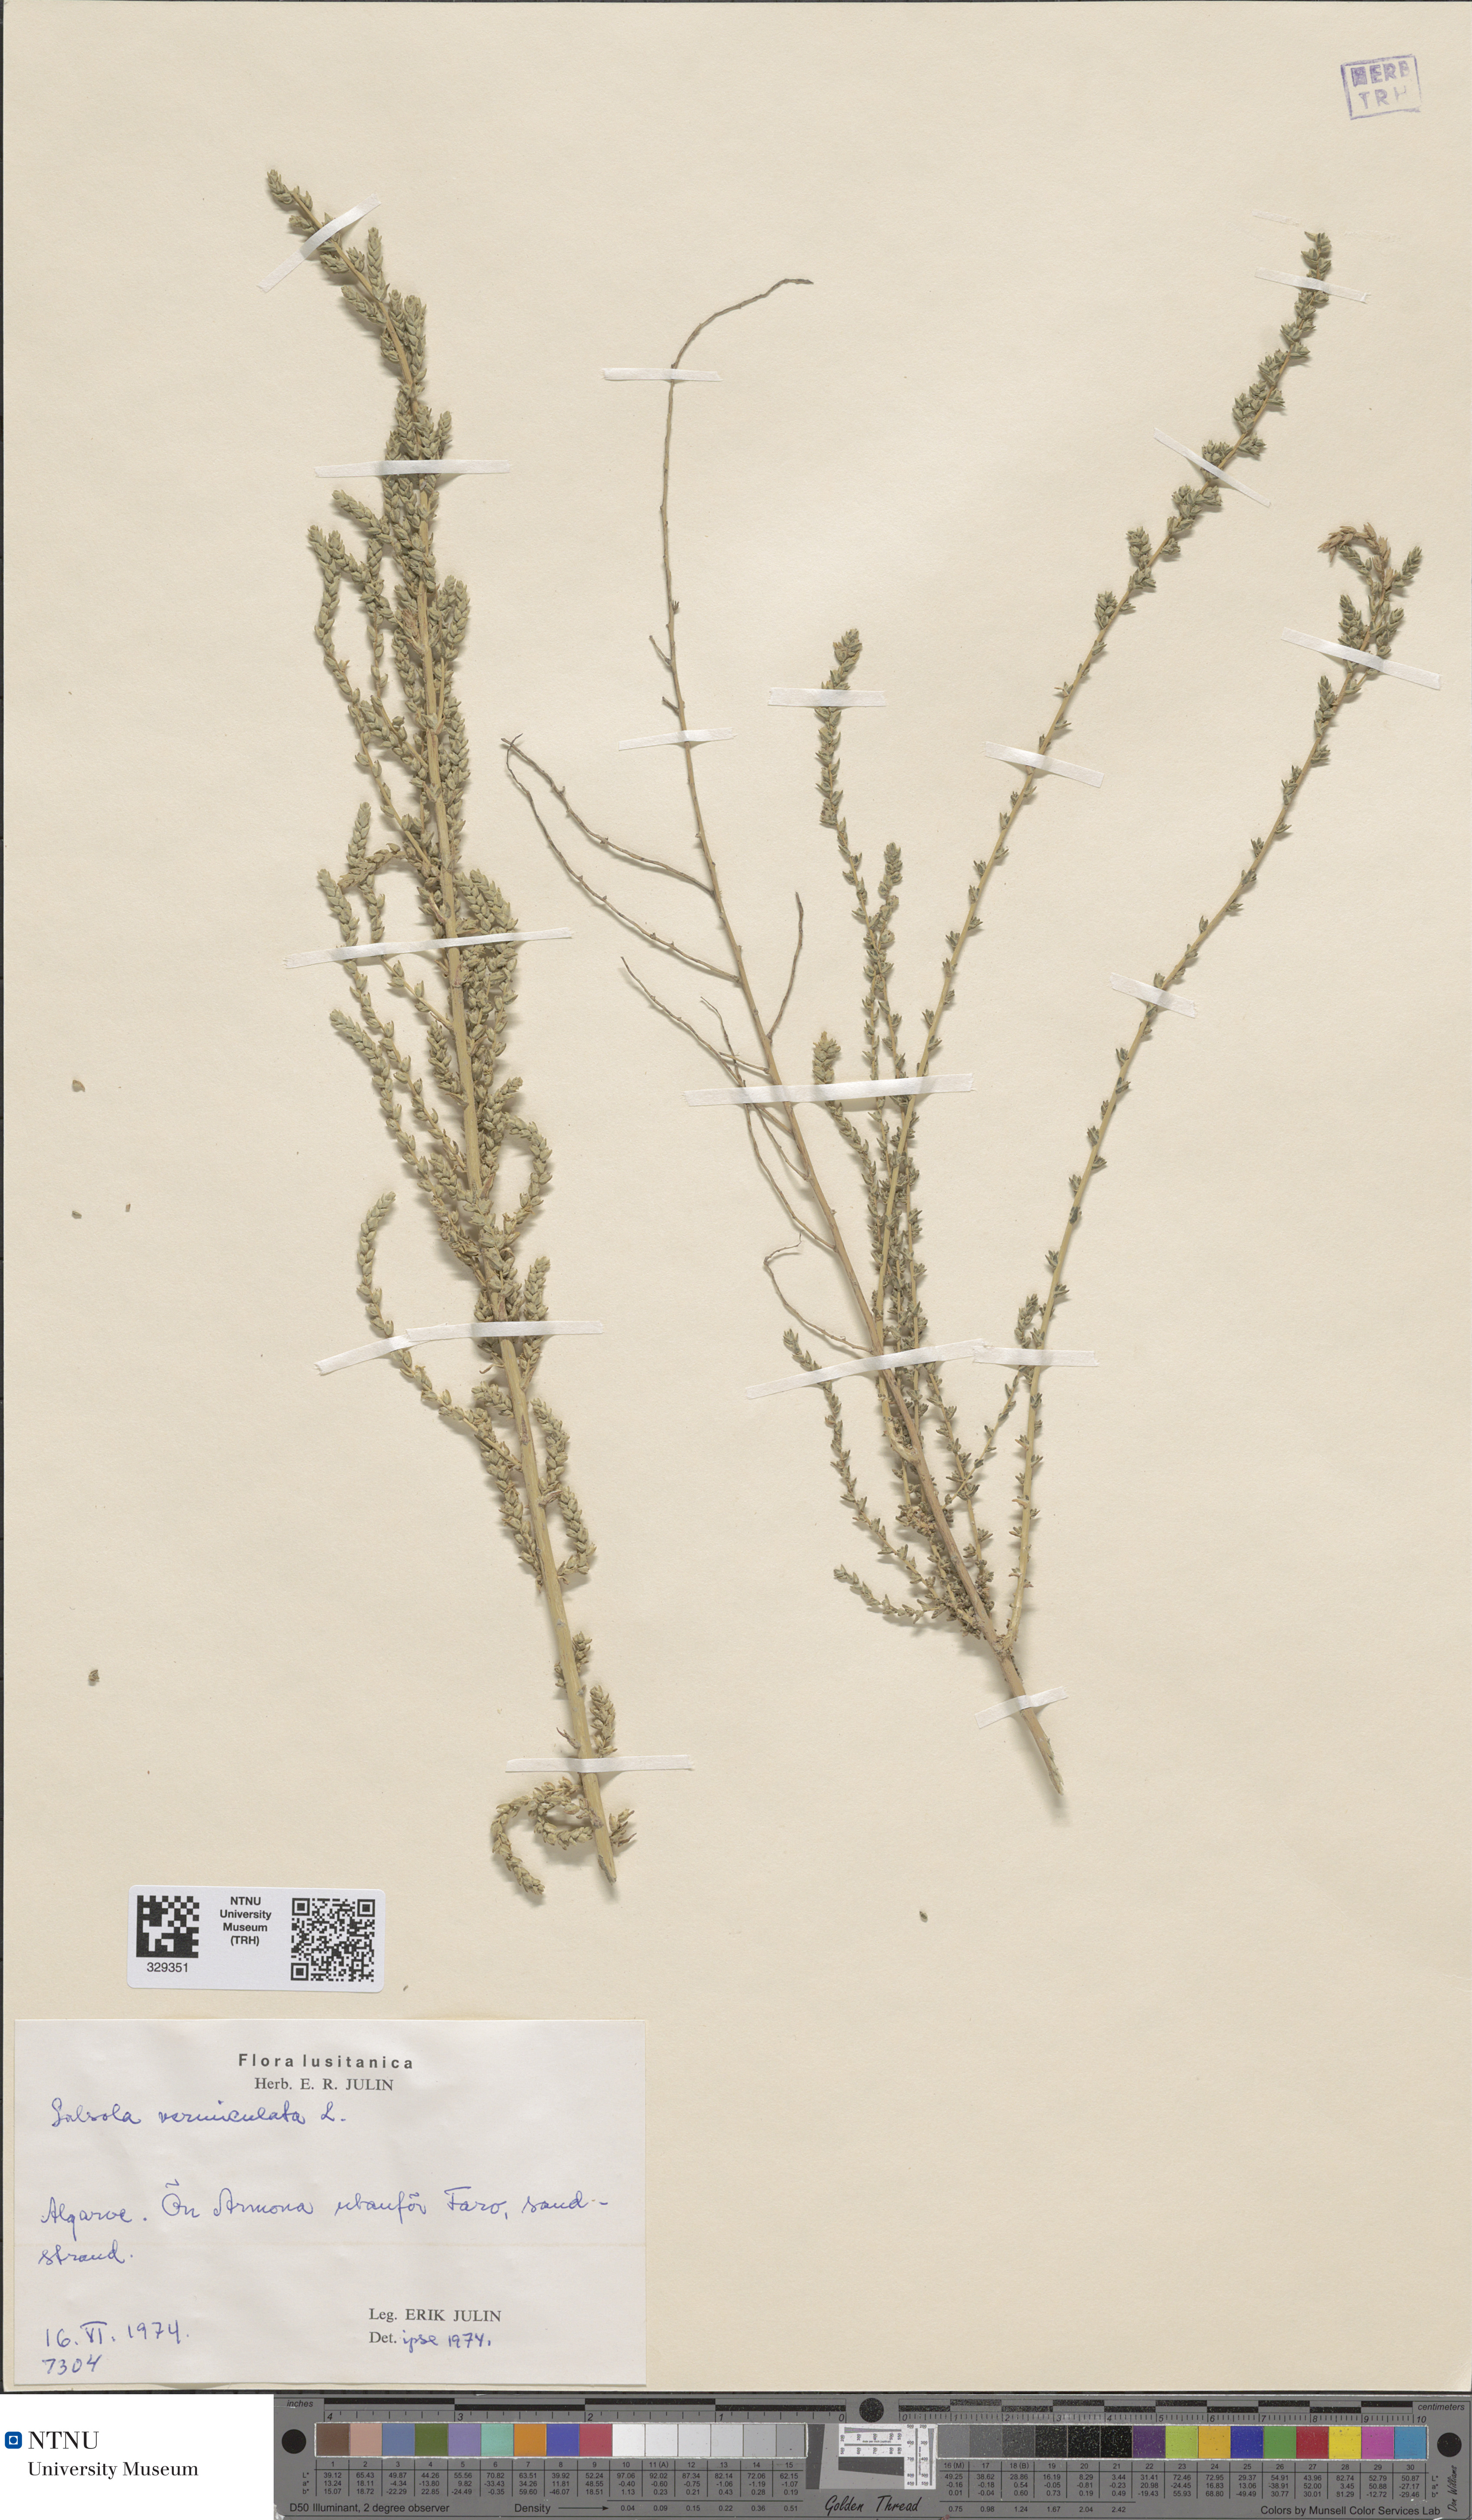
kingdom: Plantae
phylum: Tracheophyta
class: Magnoliopsida
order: Caryophyllales
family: Amaranthaceae
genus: Nitrosalsola
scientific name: Nitrosalsola vermiculata
